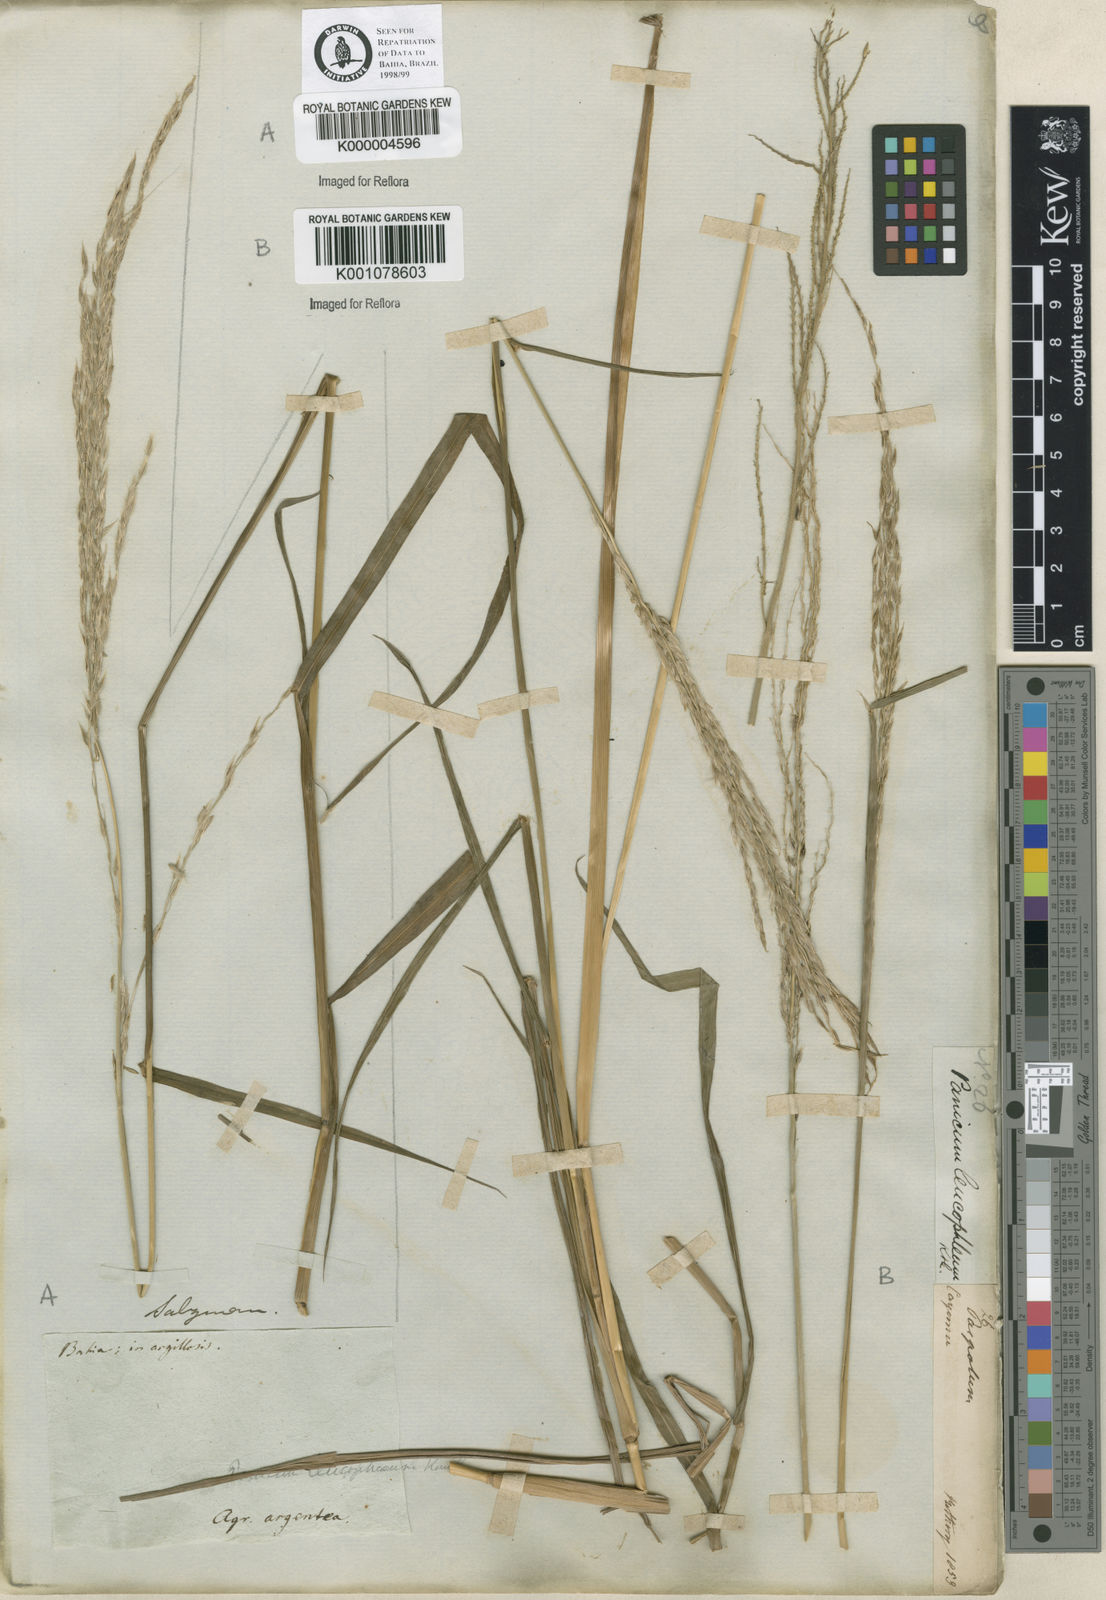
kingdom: Plantae
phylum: Tracheophyta
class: Liliopsida
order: Poales
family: Poaceae
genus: Digitaria
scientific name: Digitaria
